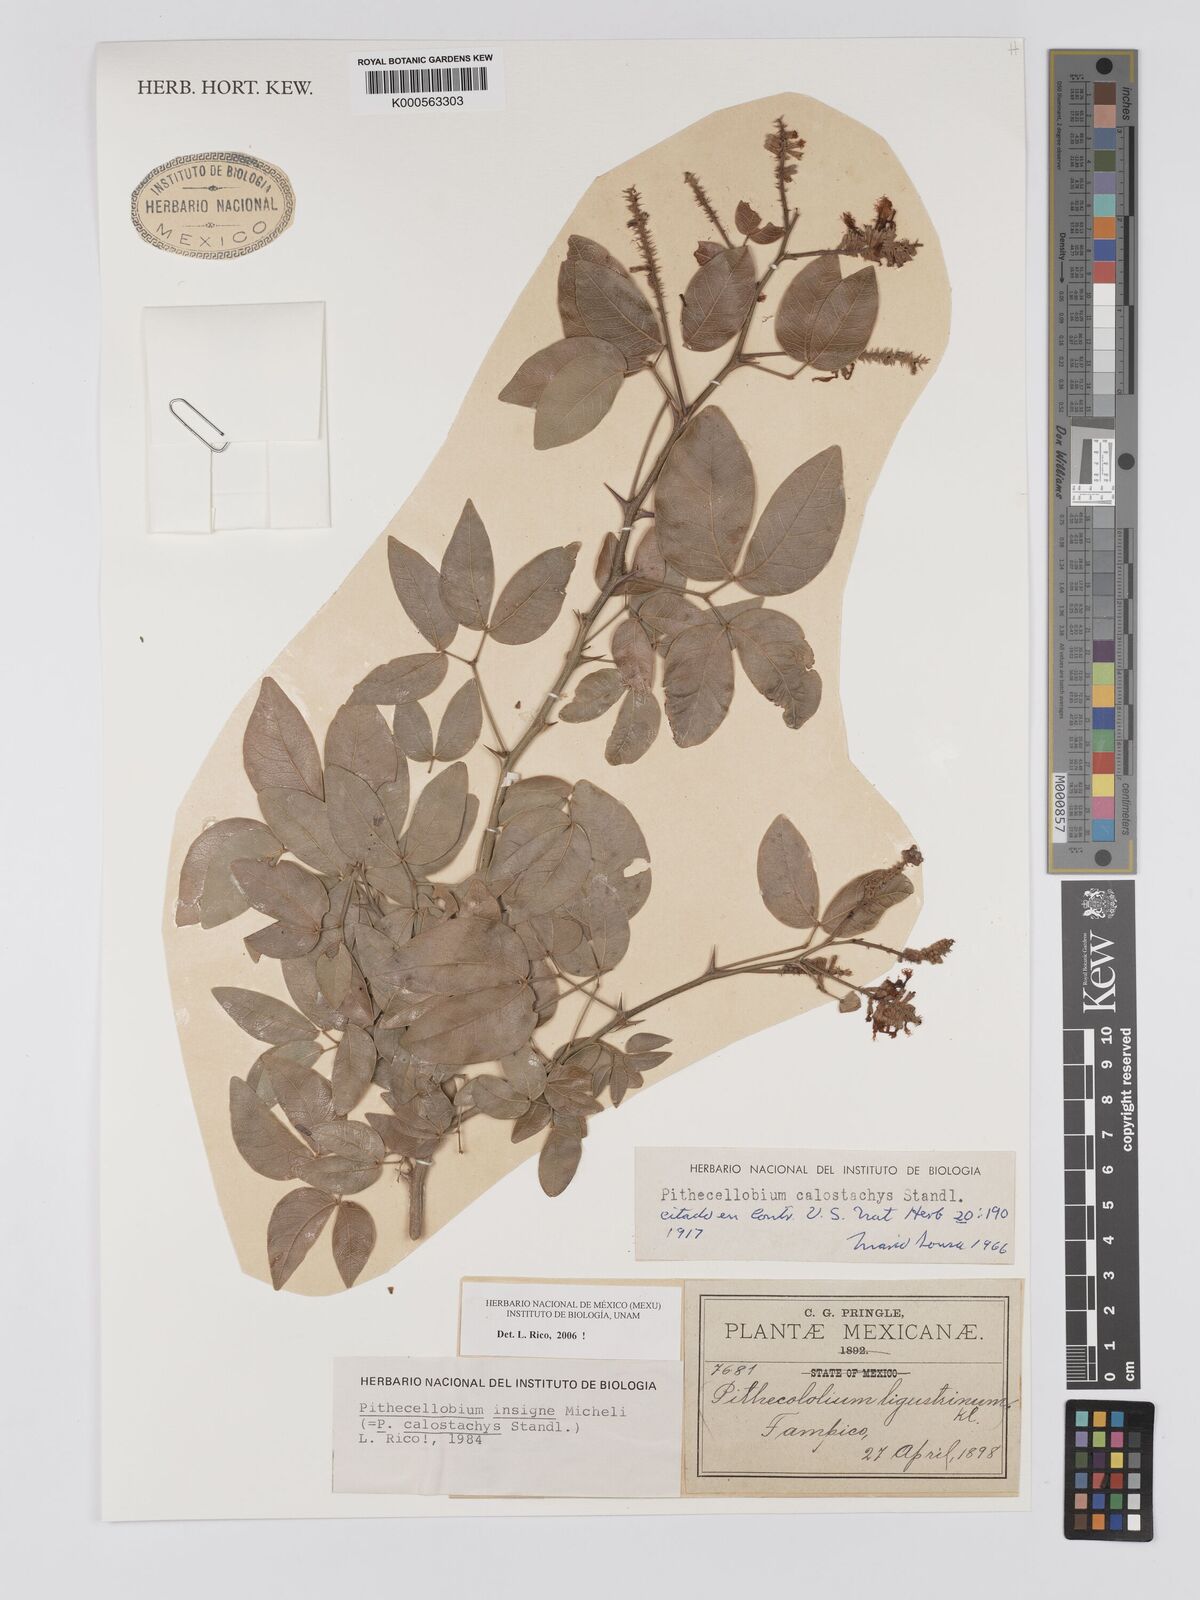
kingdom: Plantae
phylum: Tracheophyta
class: Magnoliopsida
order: Fabales
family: Fabaceae
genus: Pithecellobium
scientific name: Pithecellobium lanceolatum
